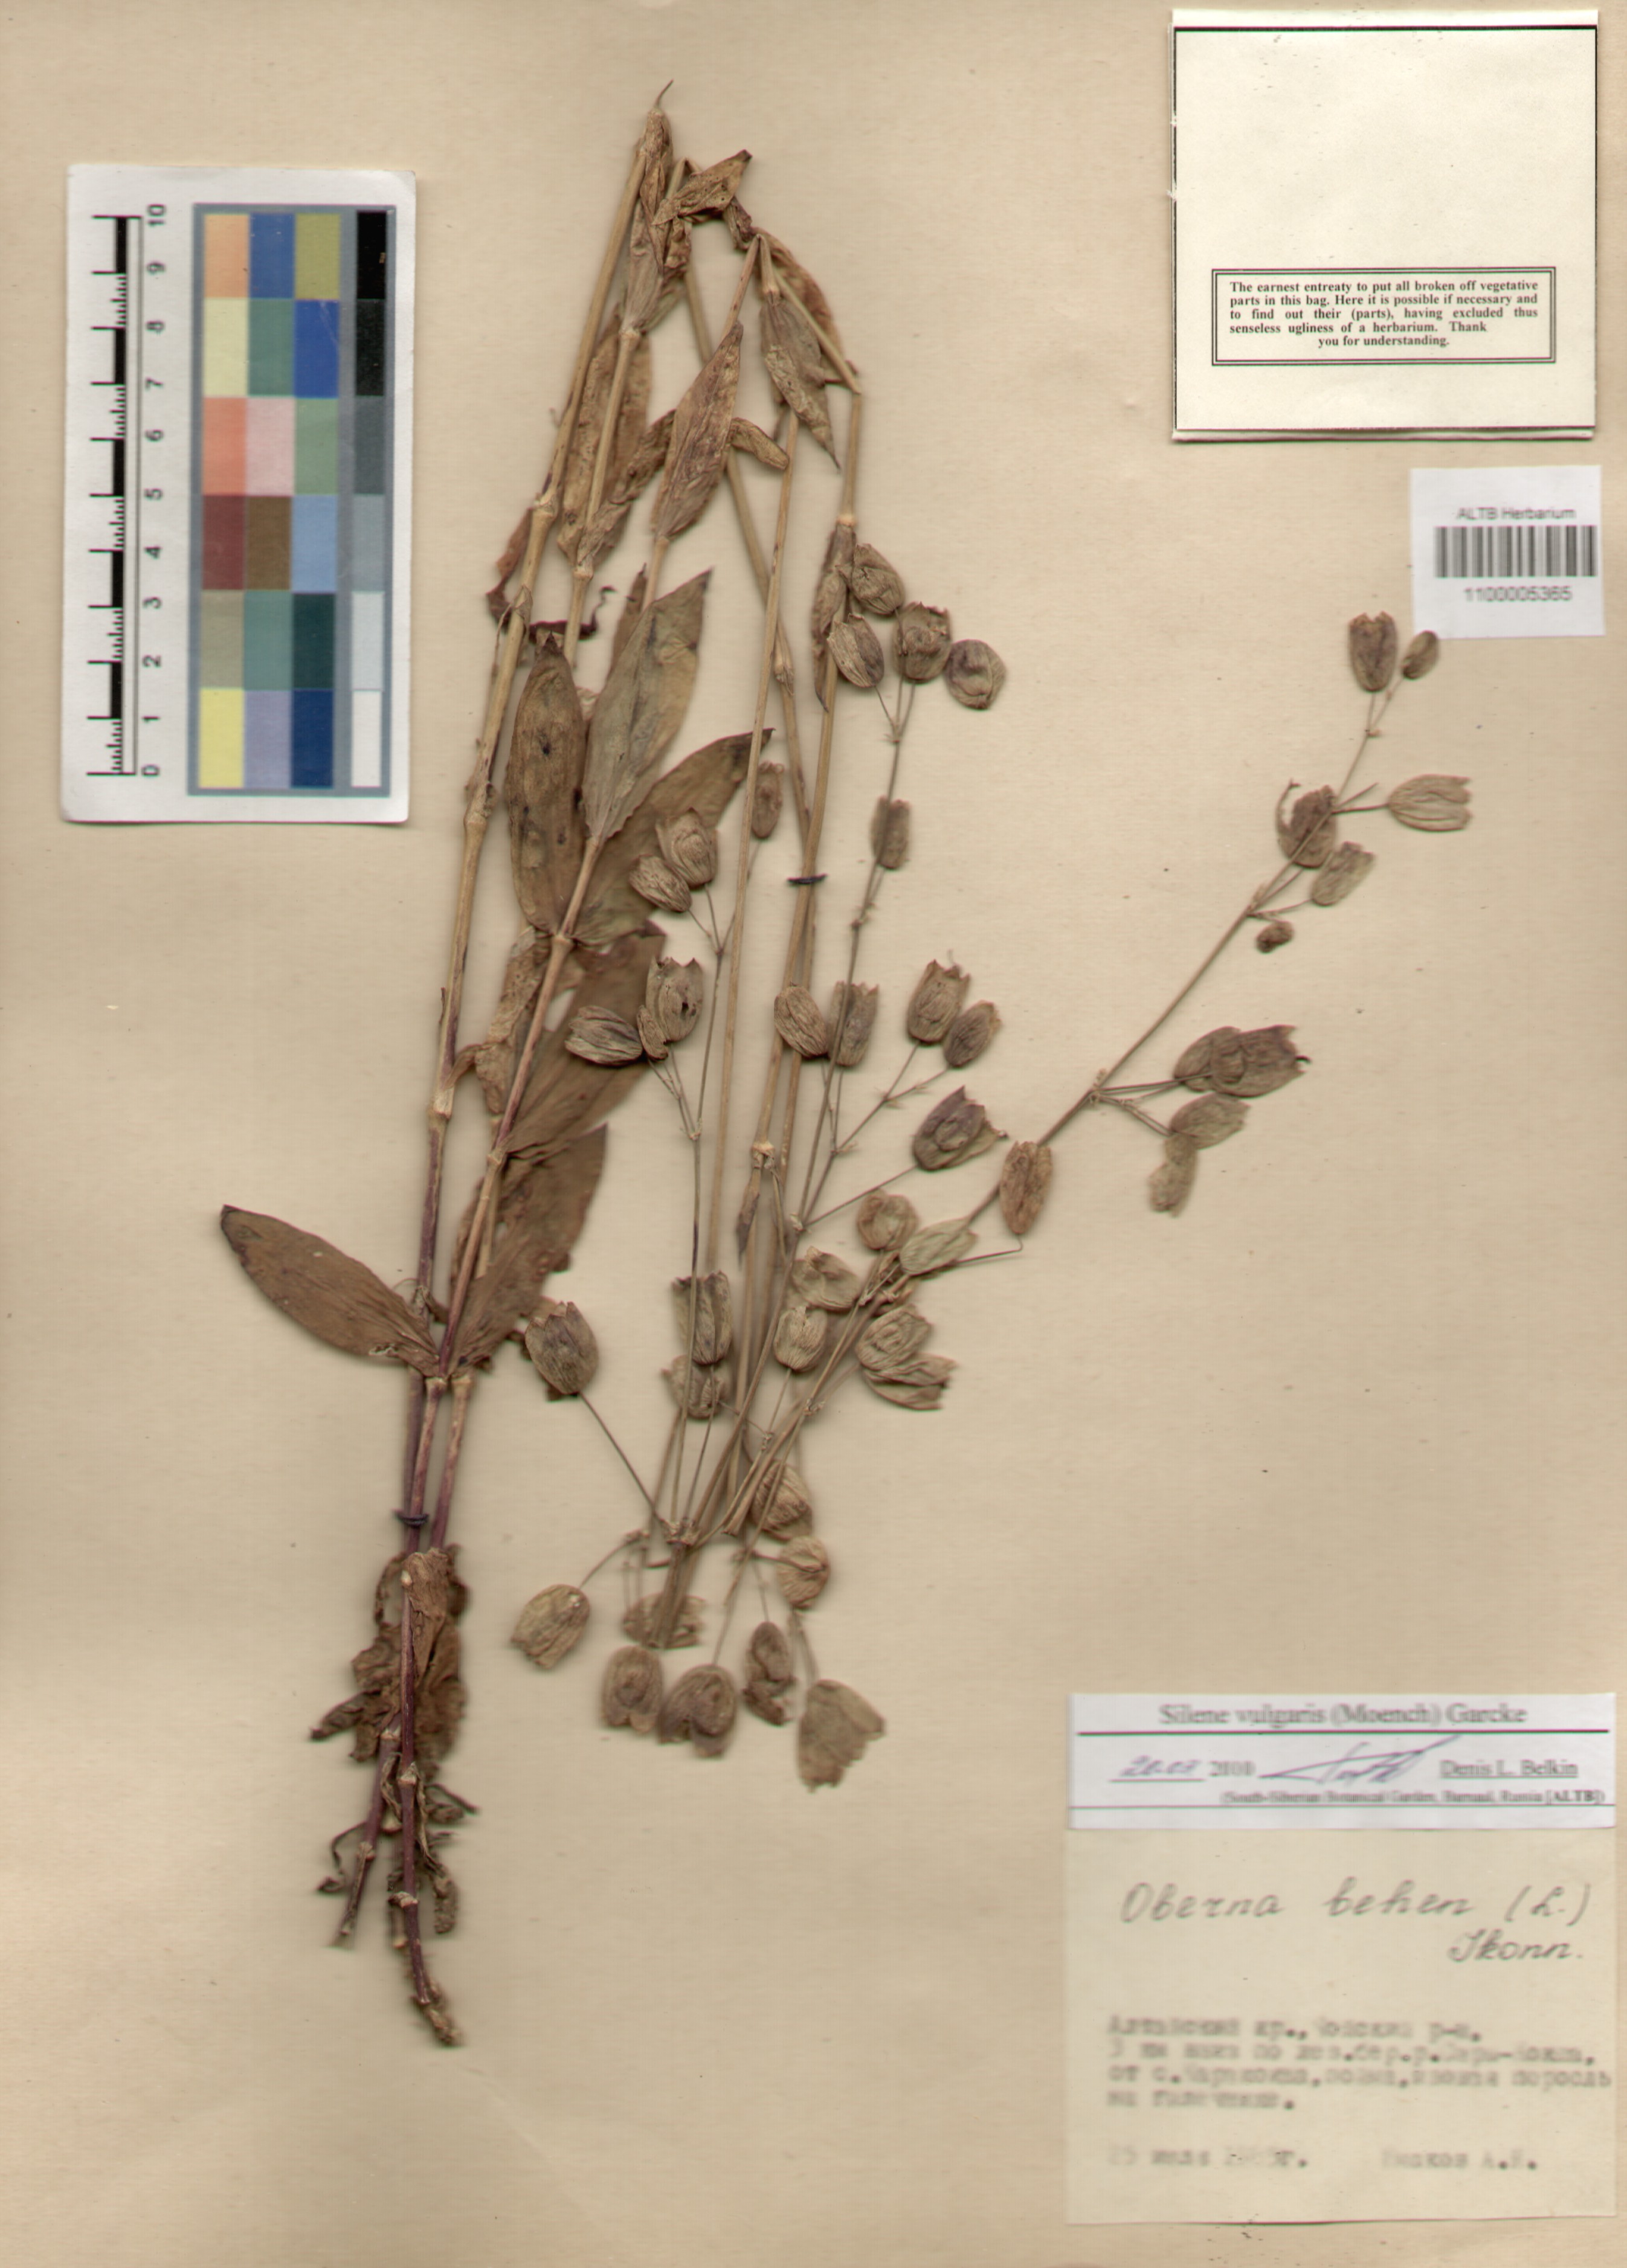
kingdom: Plantae
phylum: Tracheophyta
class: Magnoliopsida
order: Caryophyllales
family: Caryophyllaceae
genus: Silene
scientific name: Silene vulgaris
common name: Bladder campion
